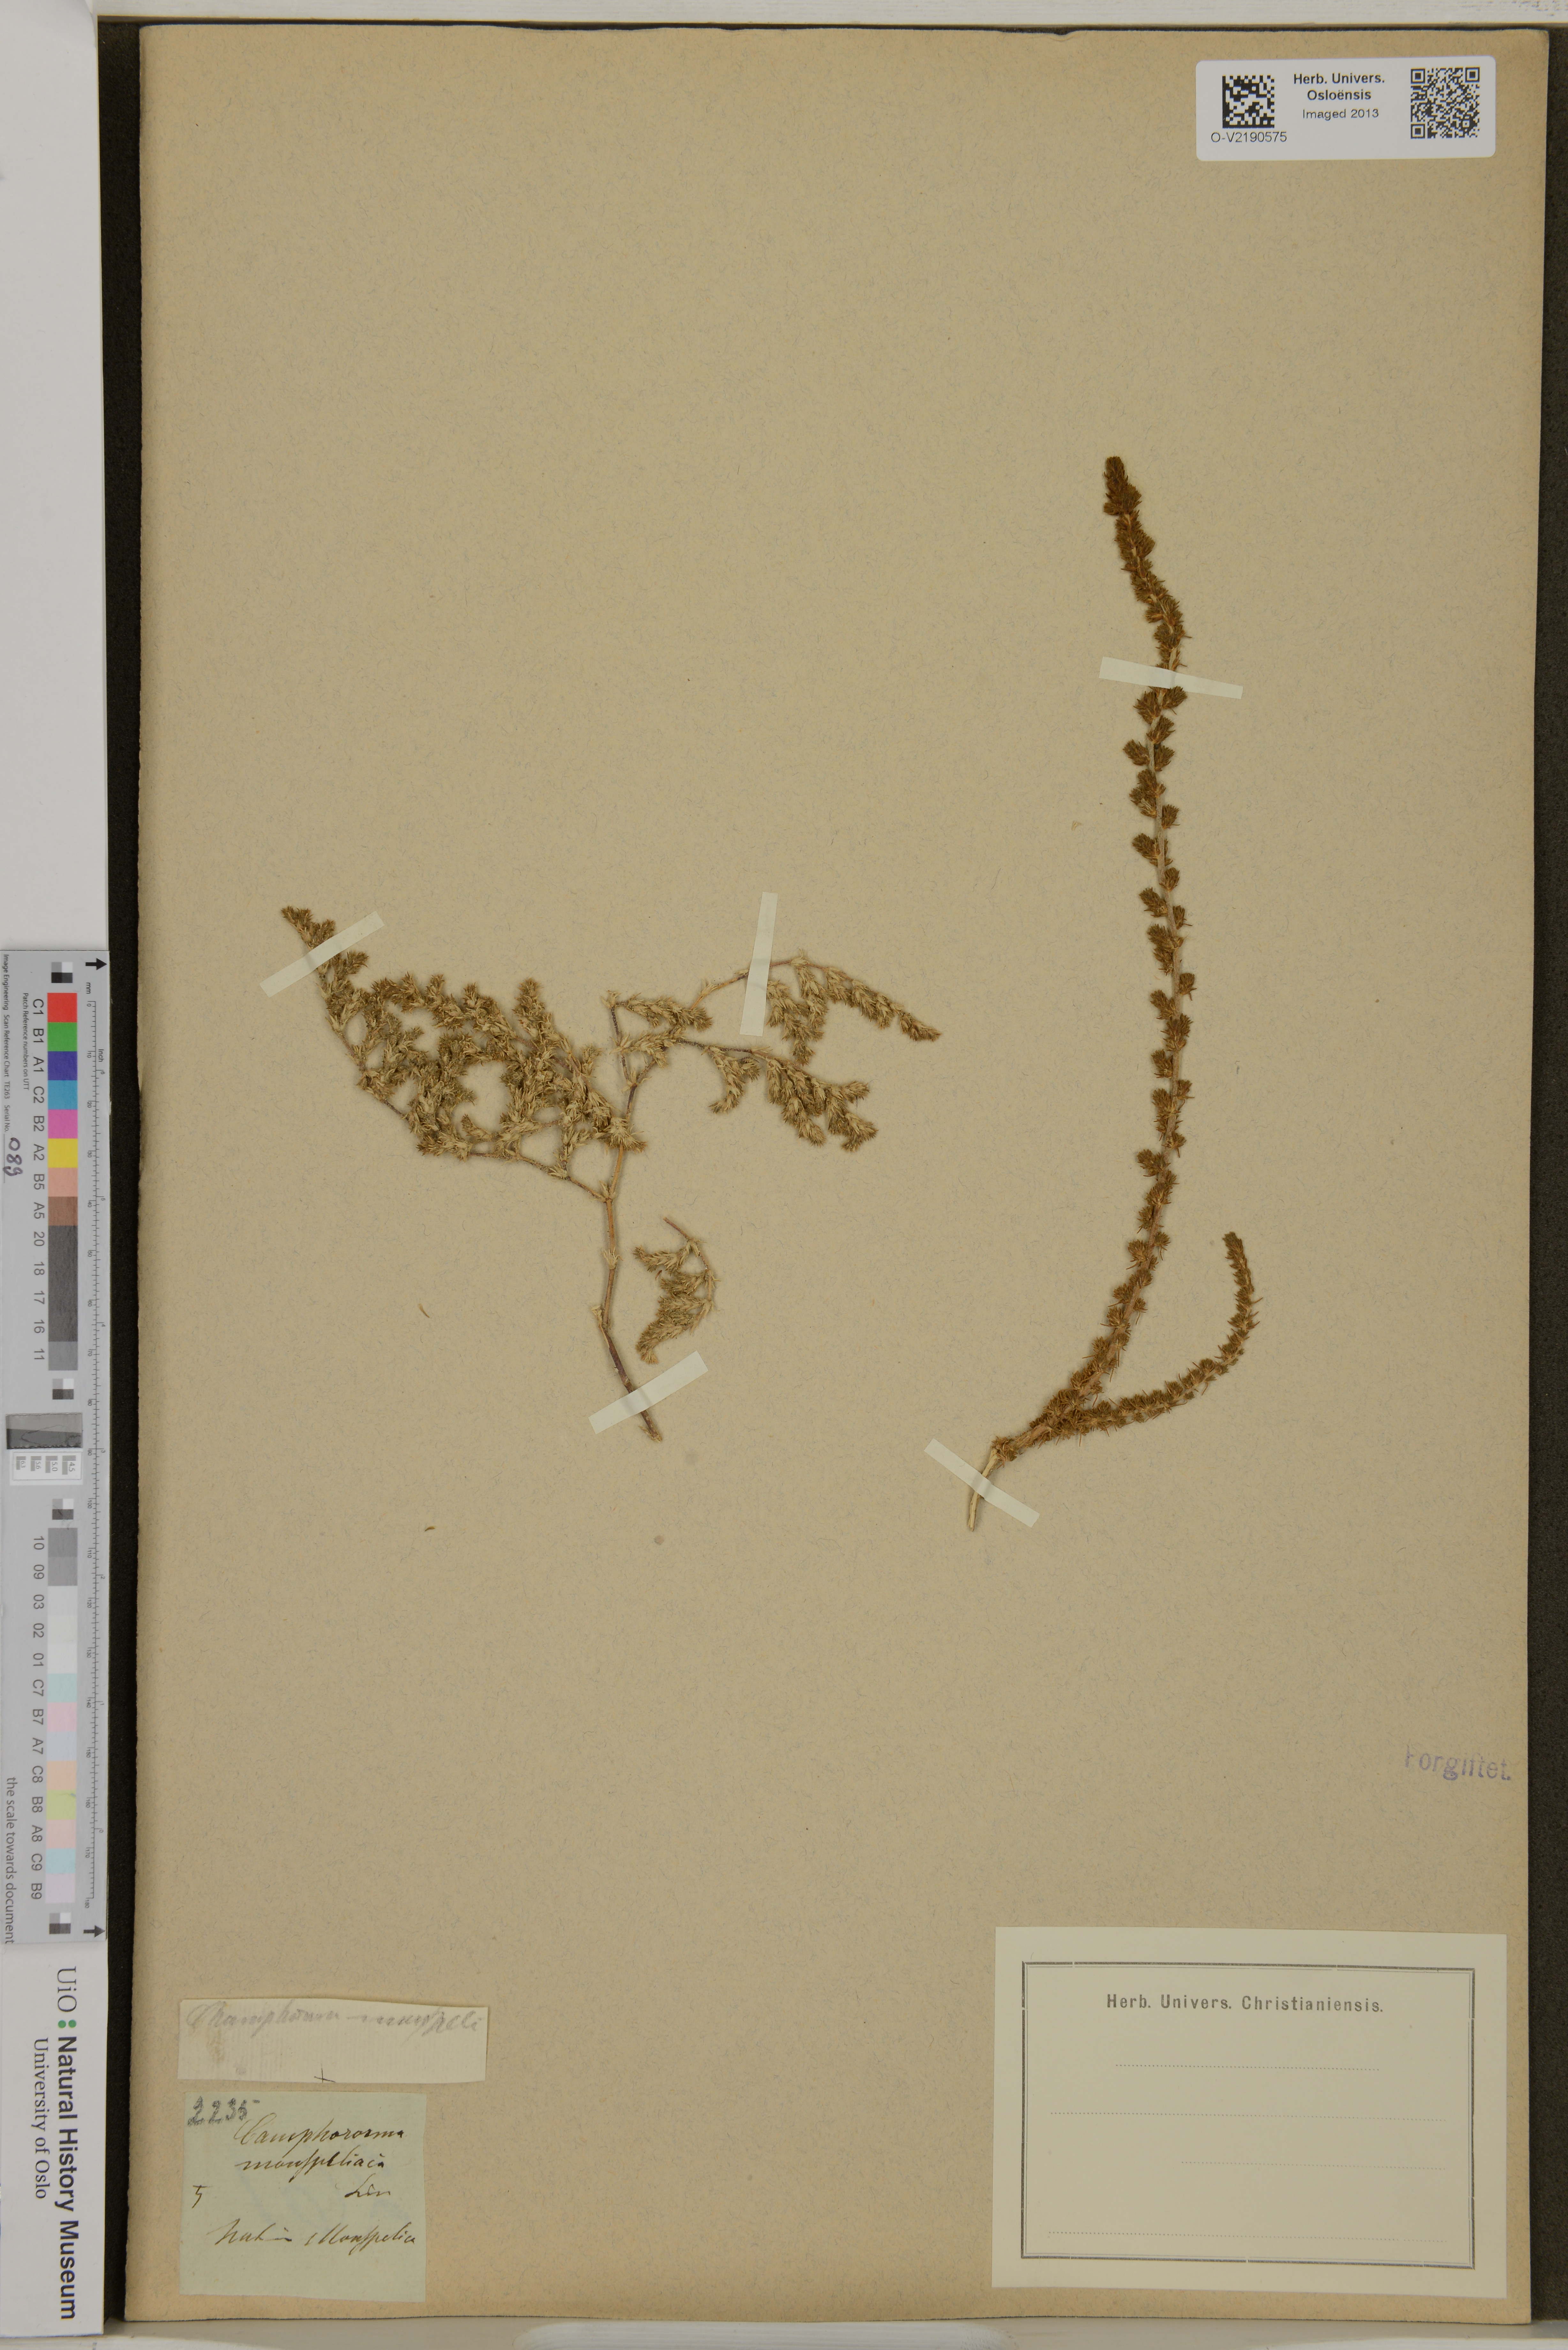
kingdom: Plantae
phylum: Tracheophyta
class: Magnoliopsida
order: Caryophyllales
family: Amaranthaceae
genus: Camphorosma
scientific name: Camphorosma monspeliaca
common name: Camphorfume
